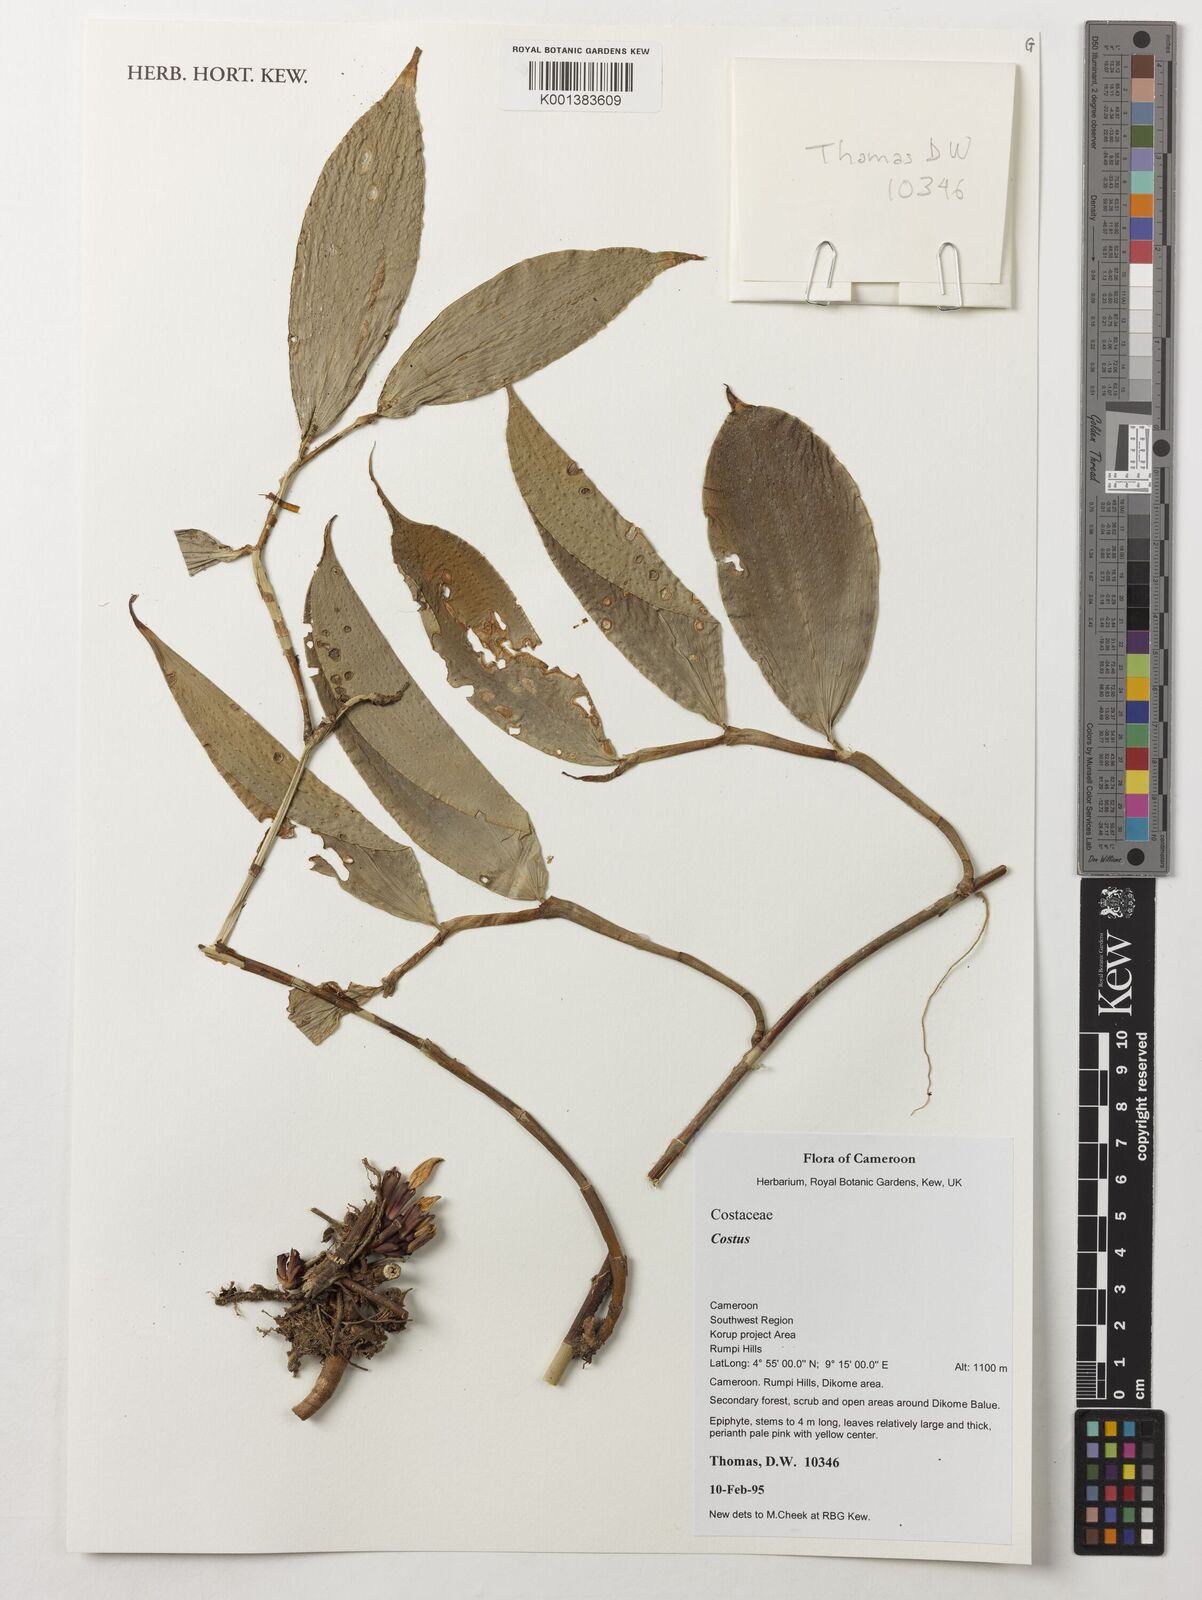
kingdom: Plantae
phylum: Tracheophyta
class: Liliopsida
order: Zingiberales
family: Costaceae
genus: Costus
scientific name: Costus
